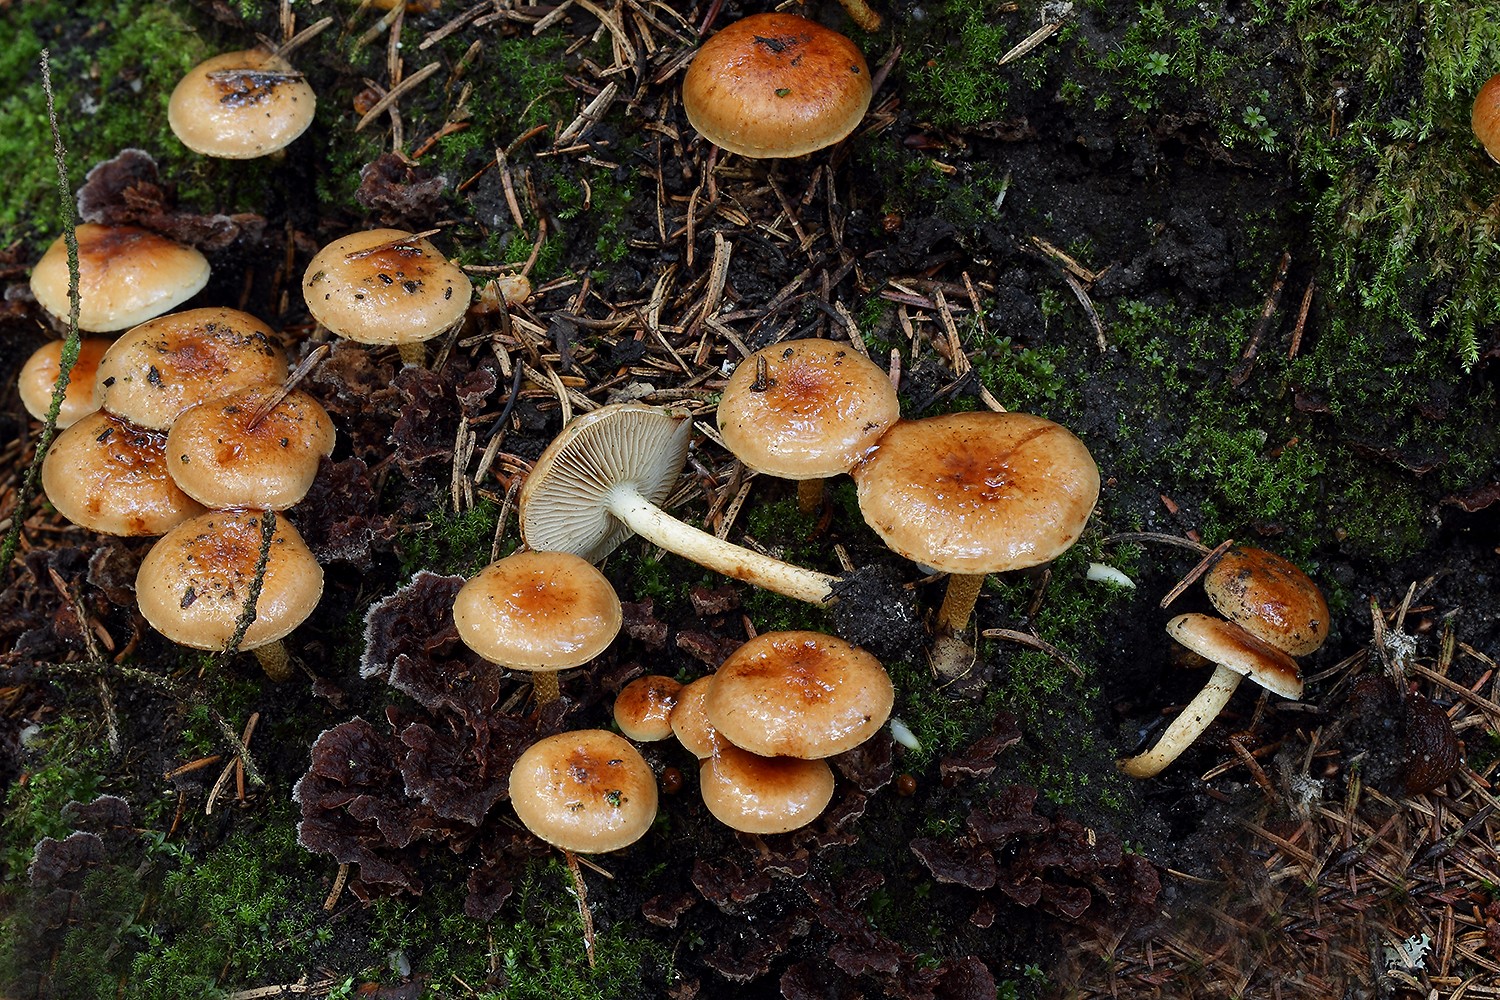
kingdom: Fungi
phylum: Basidiomycota
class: Agaricomycetes
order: Agaricales
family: Strophariaceae
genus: Pholiota
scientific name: Pholiota carbonaria
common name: kul-skælhat
